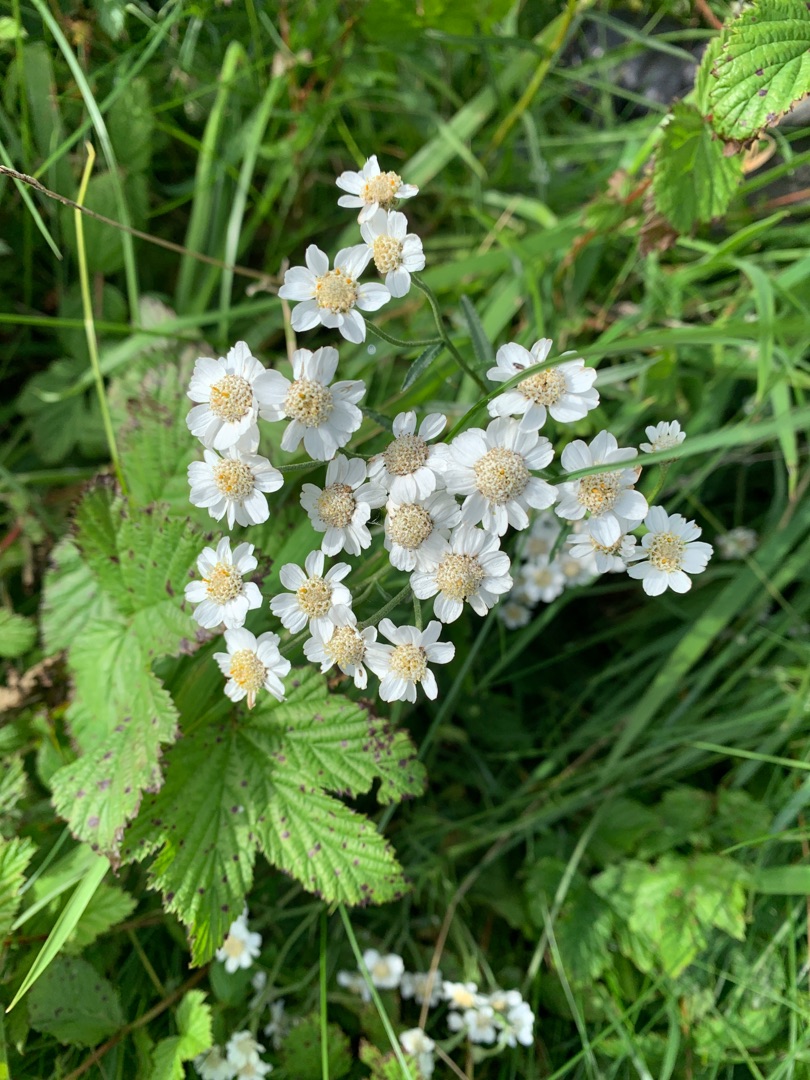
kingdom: Plantae
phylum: Tracheophyta
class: Magnoliopsida
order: Asterales
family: Asteraceae
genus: Achillea
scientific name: Achillea ptarmica
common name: Nyse-røllike
